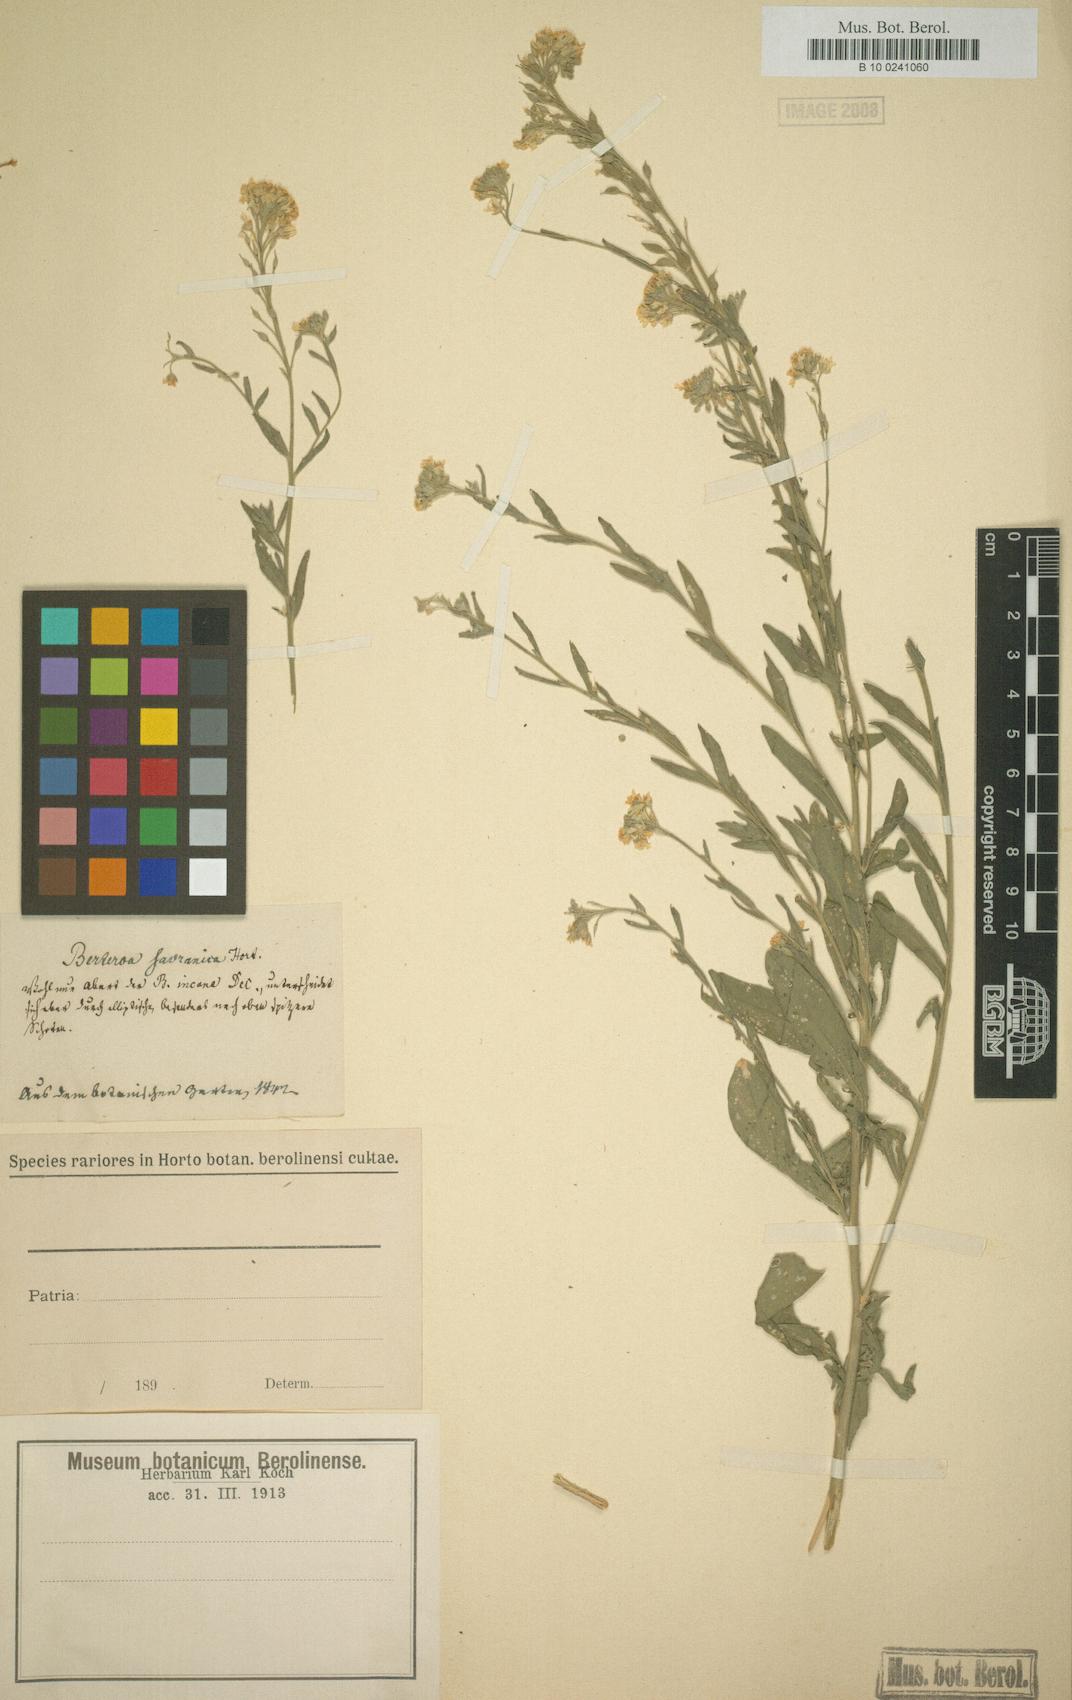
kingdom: Plantae
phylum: Tracheophyta
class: Magnoliopsida
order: Brassicales
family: Brassicaceae
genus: Berteroa
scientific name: Berteroa
